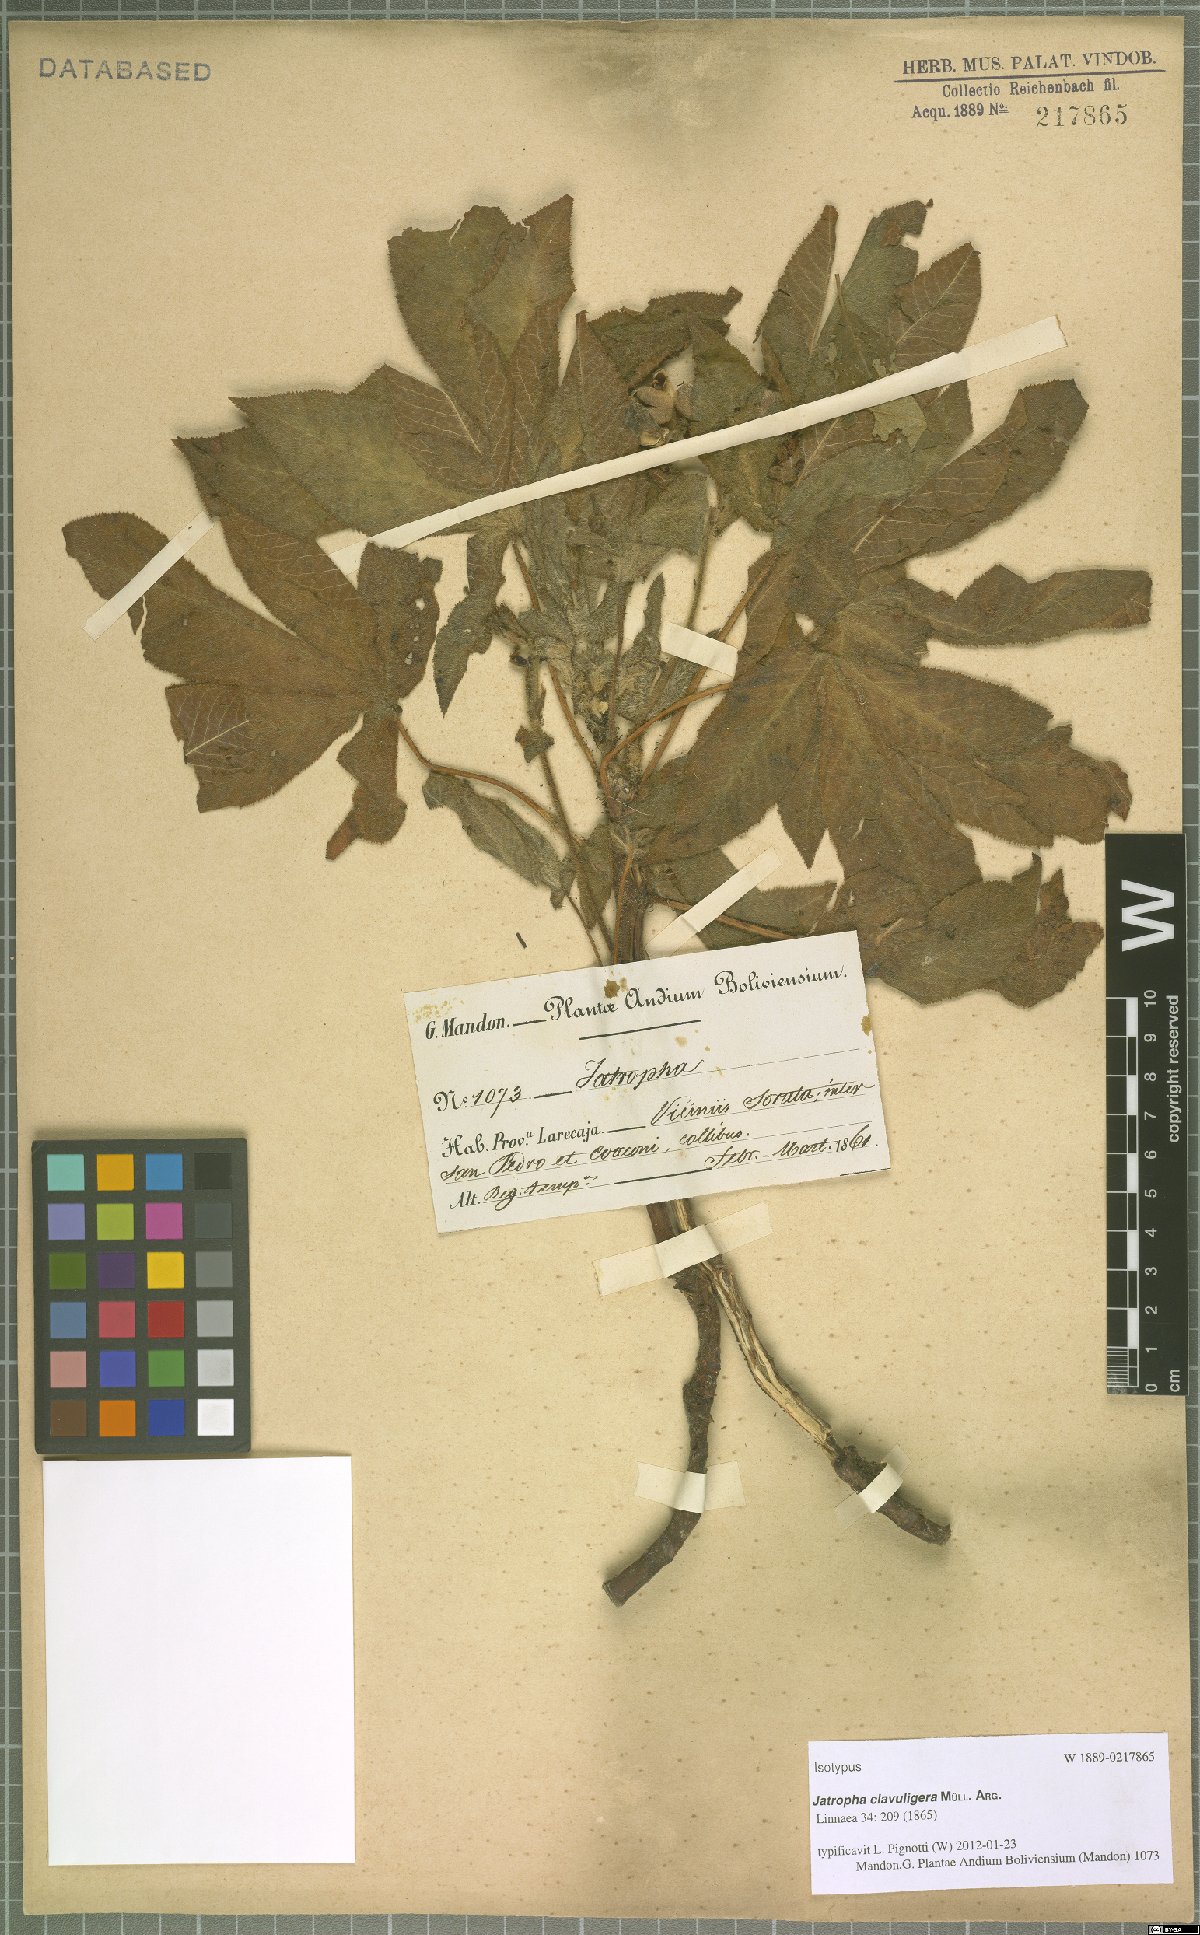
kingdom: Plantae
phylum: Tracheophyta
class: Magnoliopsida
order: Malpighiales
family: Euphorbiaceae
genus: Jatropha
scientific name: Jatropha clavuligera
